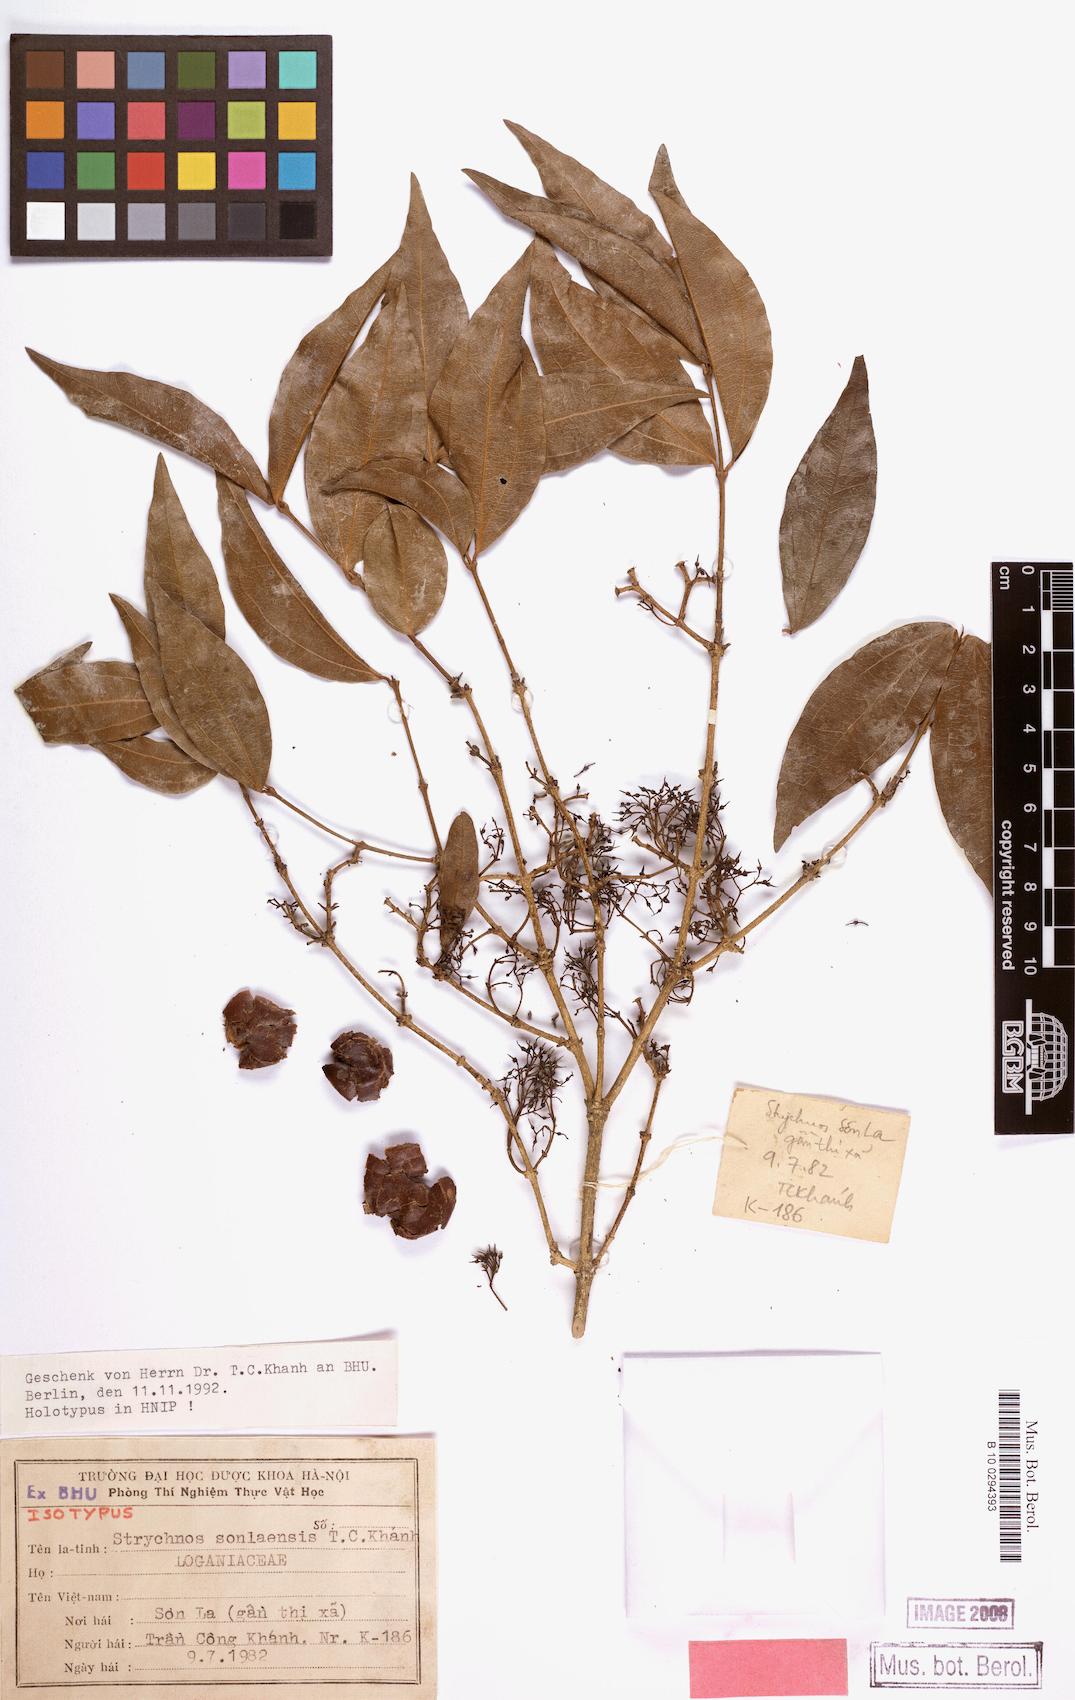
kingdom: Plantae
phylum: Tracheophyta
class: Magnoliopsida
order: Gentianales
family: Loganiaceae
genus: Strychnos
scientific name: Strychnos sonlaensis
